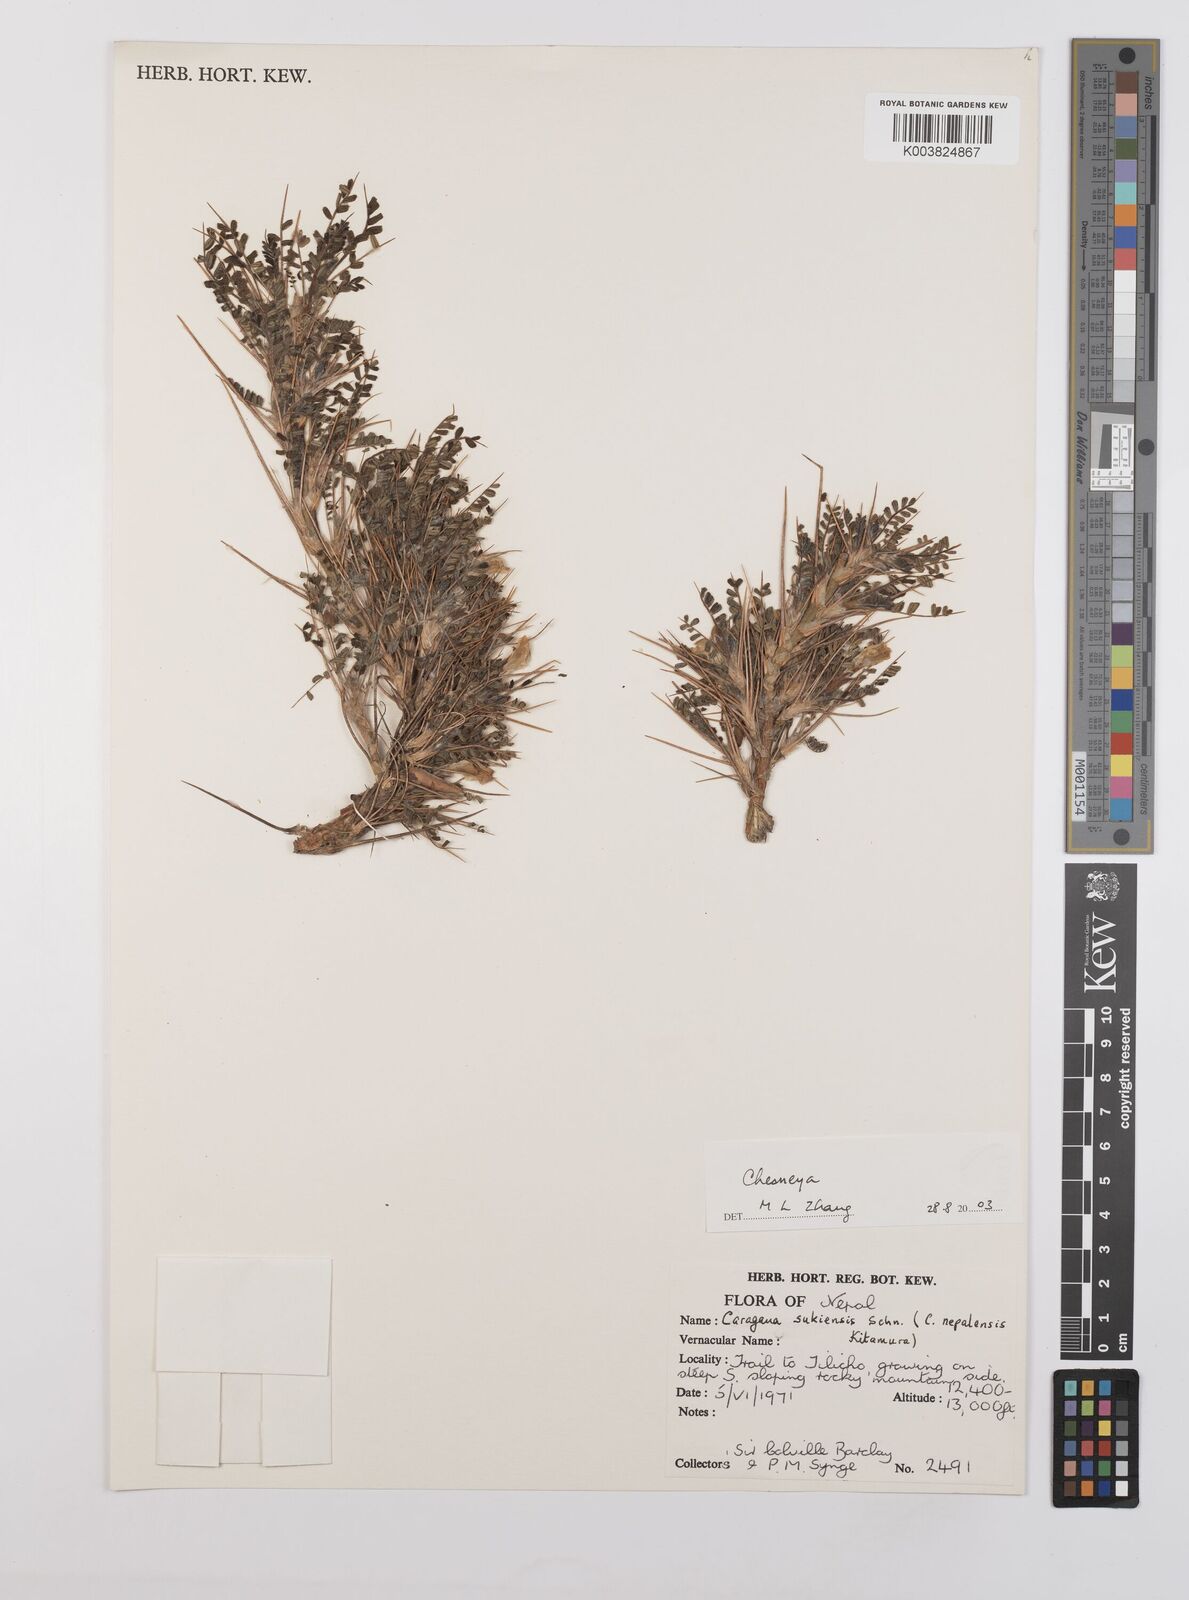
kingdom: Plantae
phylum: Tracheophyta
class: Magnoliopsida
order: Fabales
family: Fabaceae
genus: Chesneya
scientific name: Chesneya
